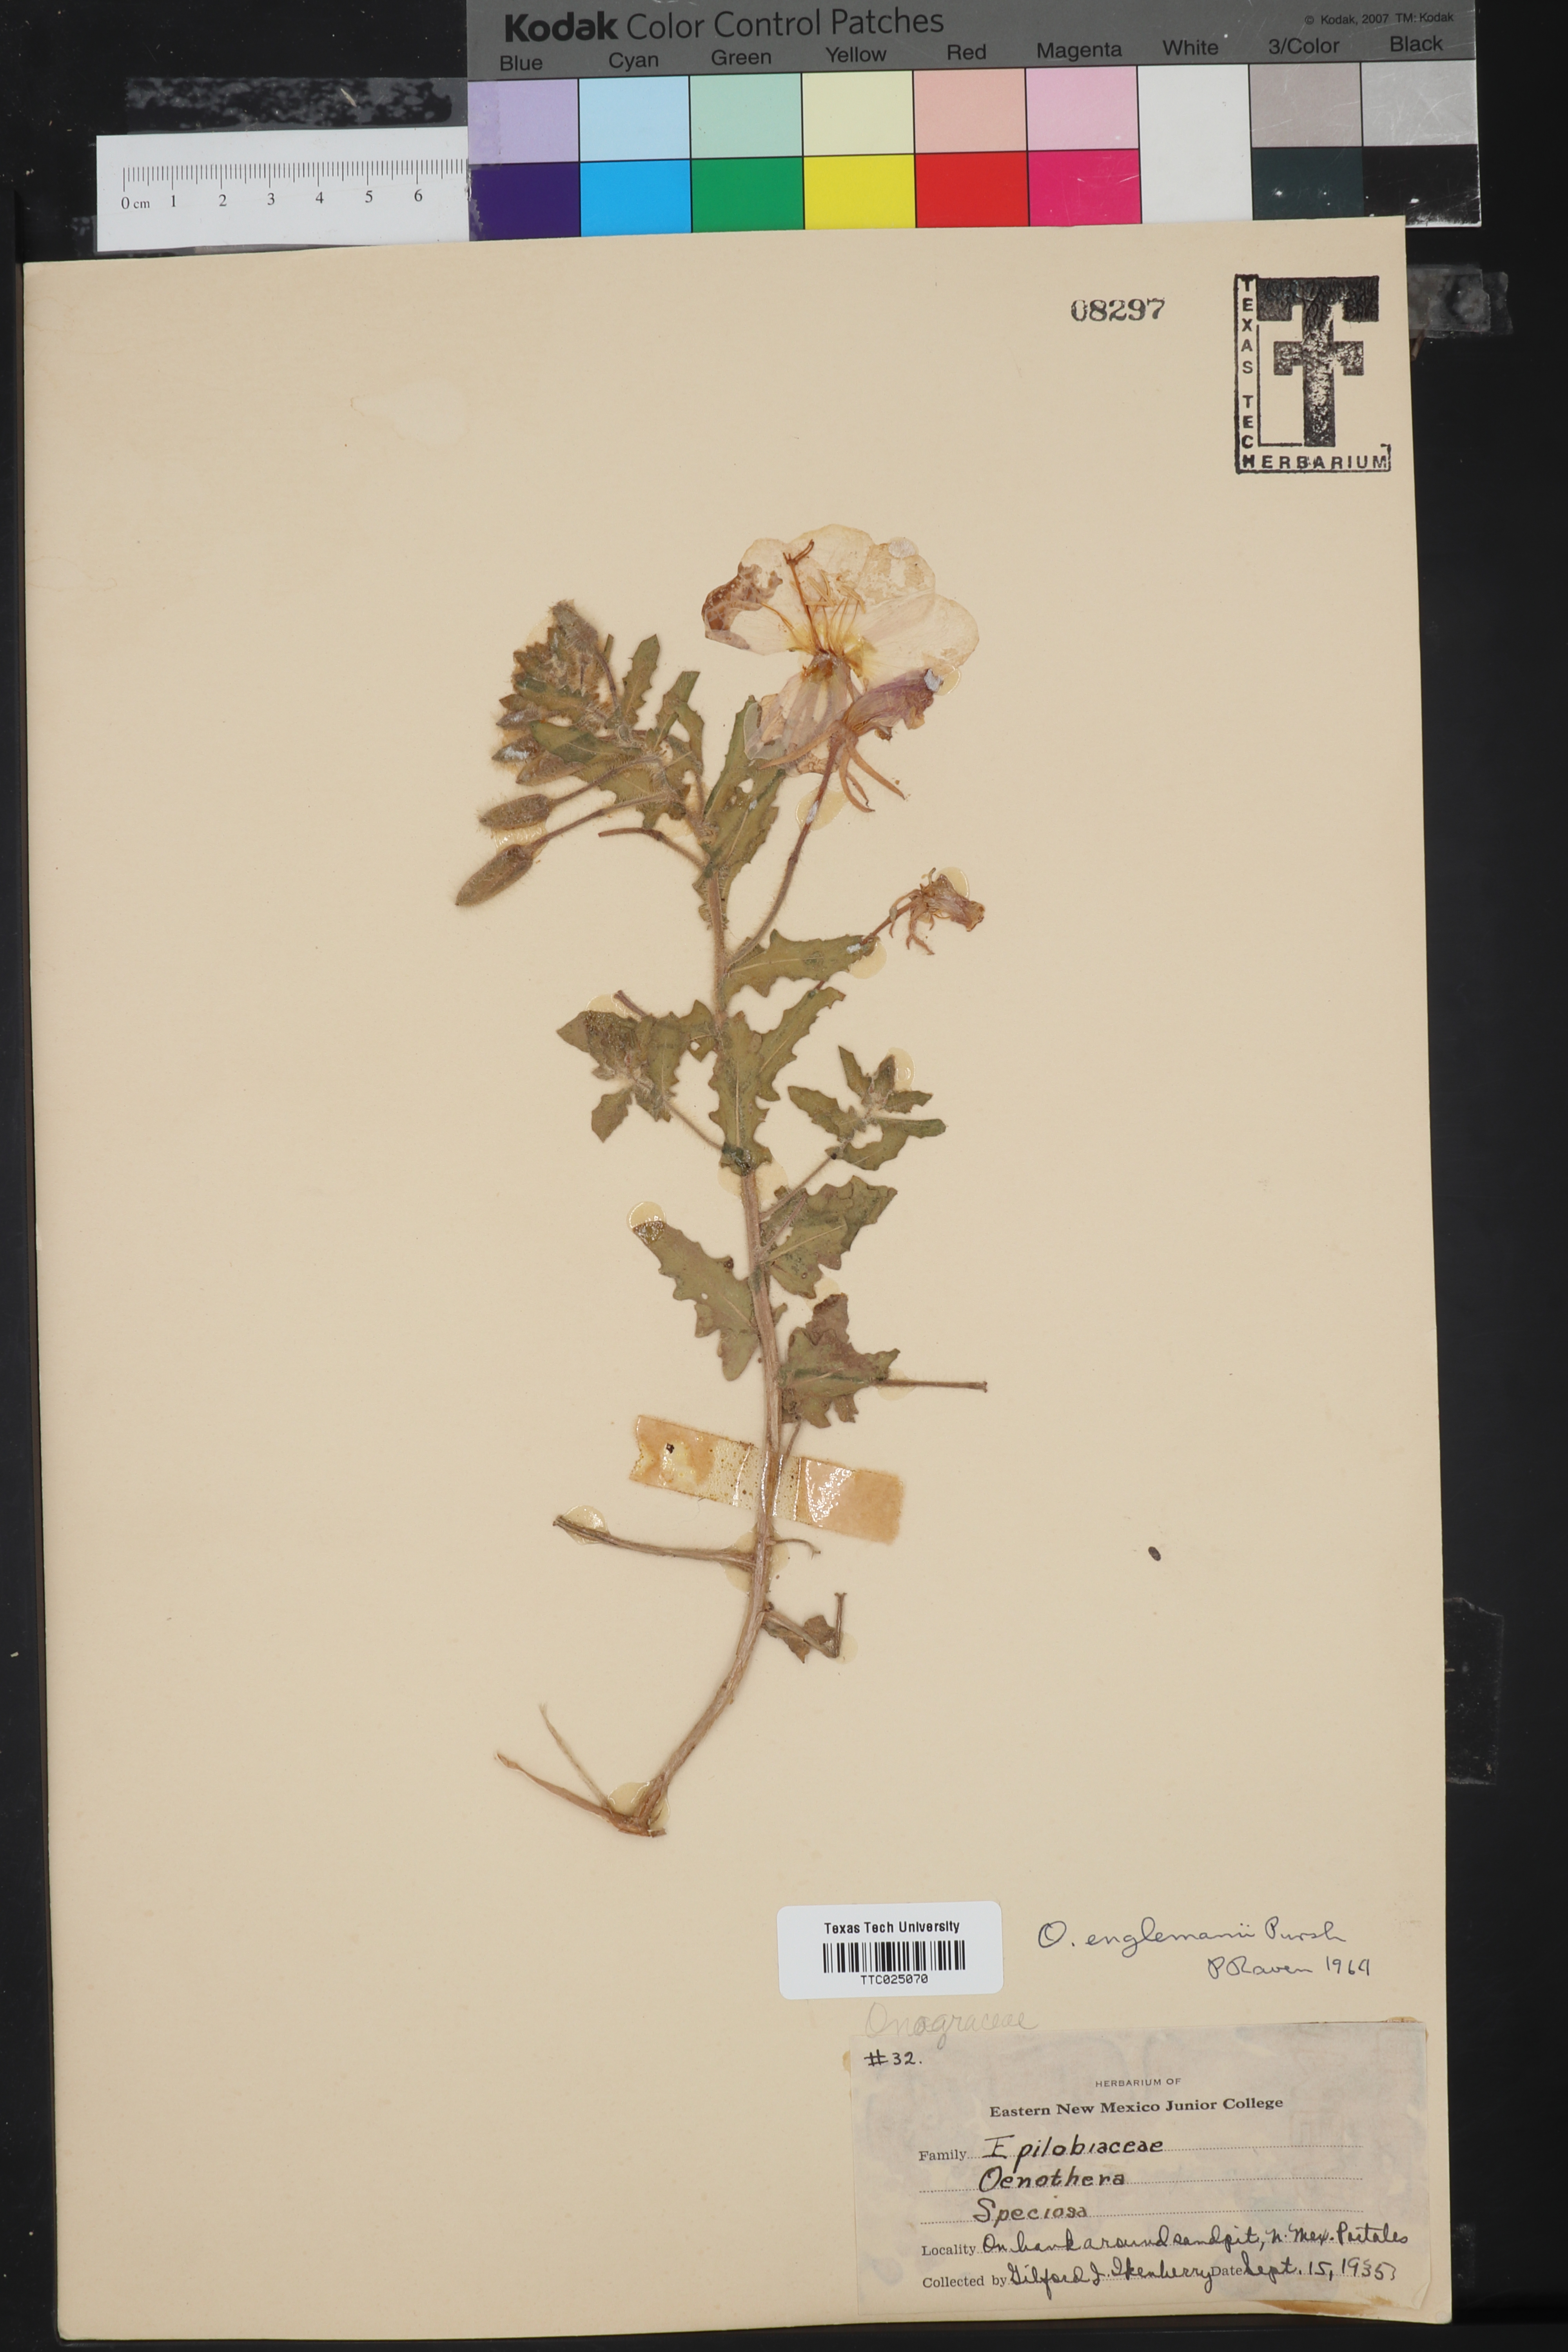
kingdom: Plantae
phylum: Tracheophyta
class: Magnoliopsida
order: Myrtales
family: Onagraceae
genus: Oenothera
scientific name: Oenothera engelmannii
